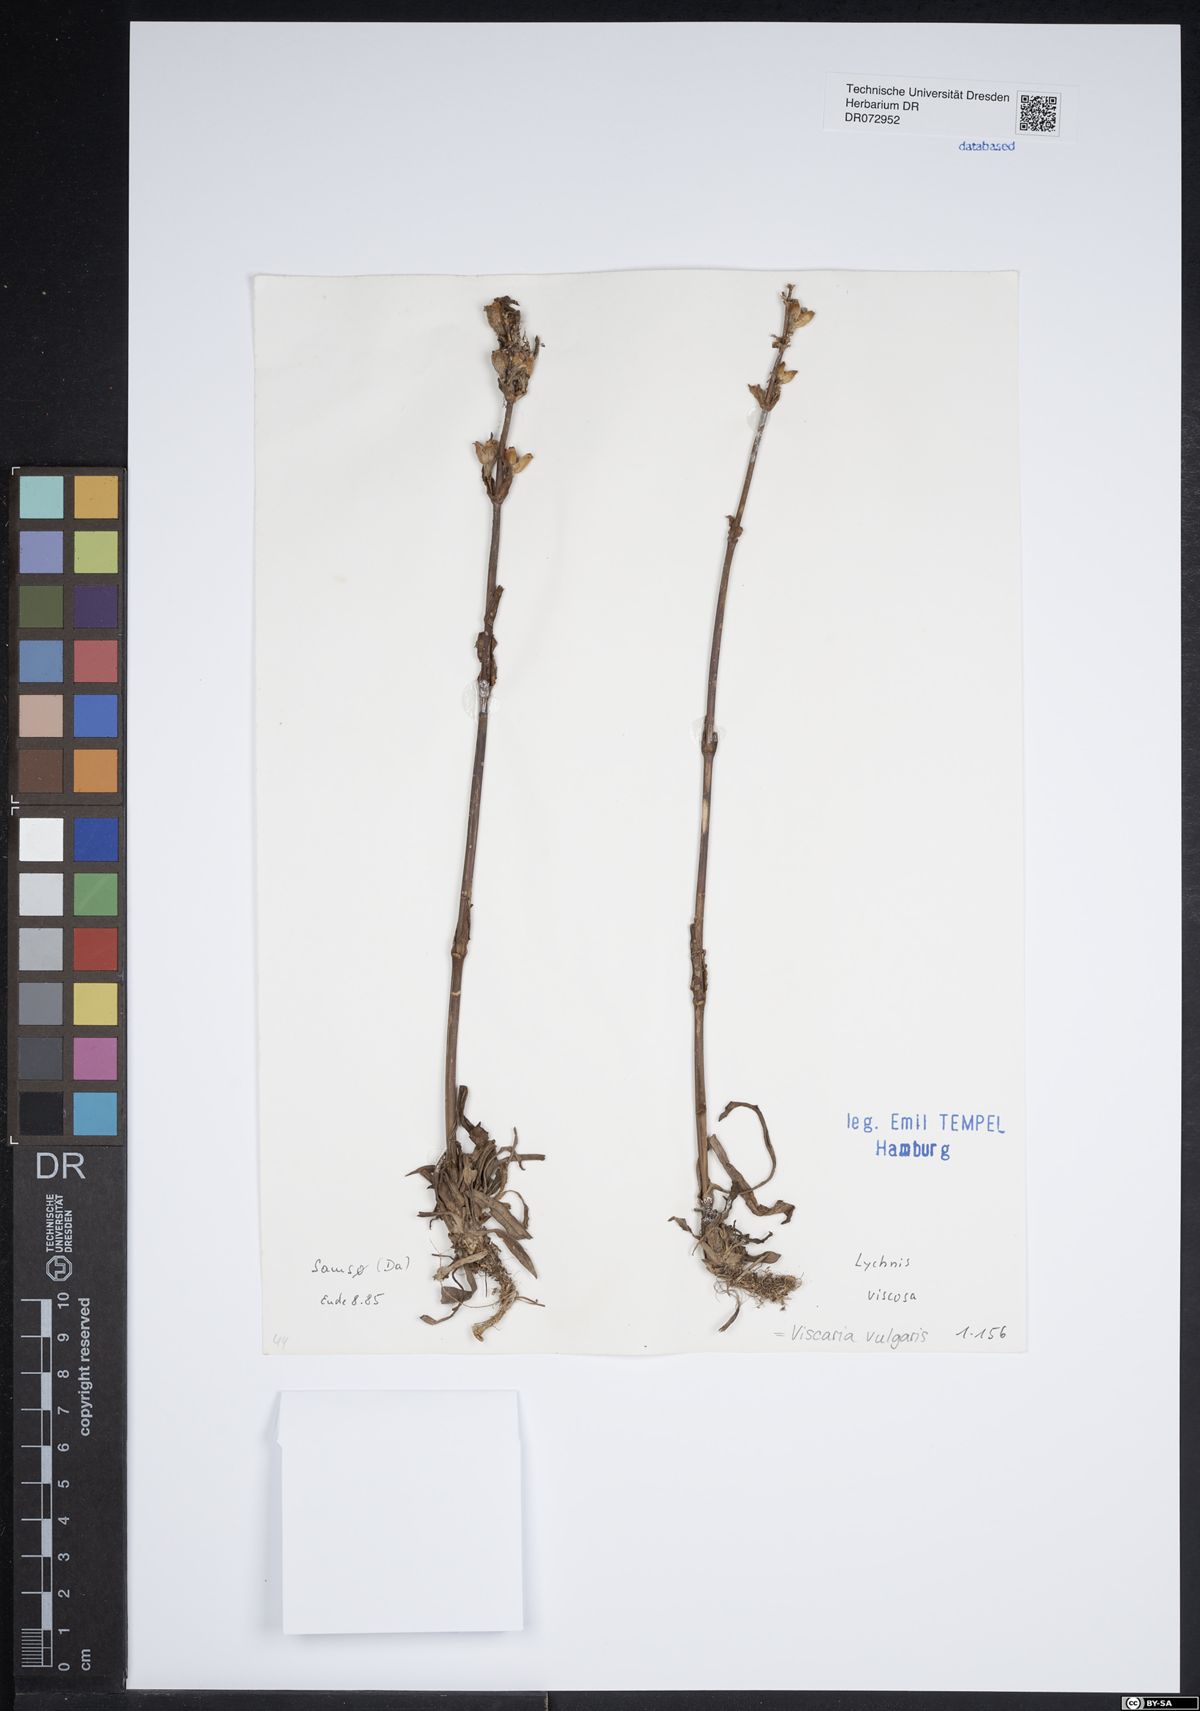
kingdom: Plantae
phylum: Tracheophyta
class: Magnoliopsida
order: Caryophyllales
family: Caryophyllaceae
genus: Viscaria
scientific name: Viscaria vulgaris
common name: Clammy campion
